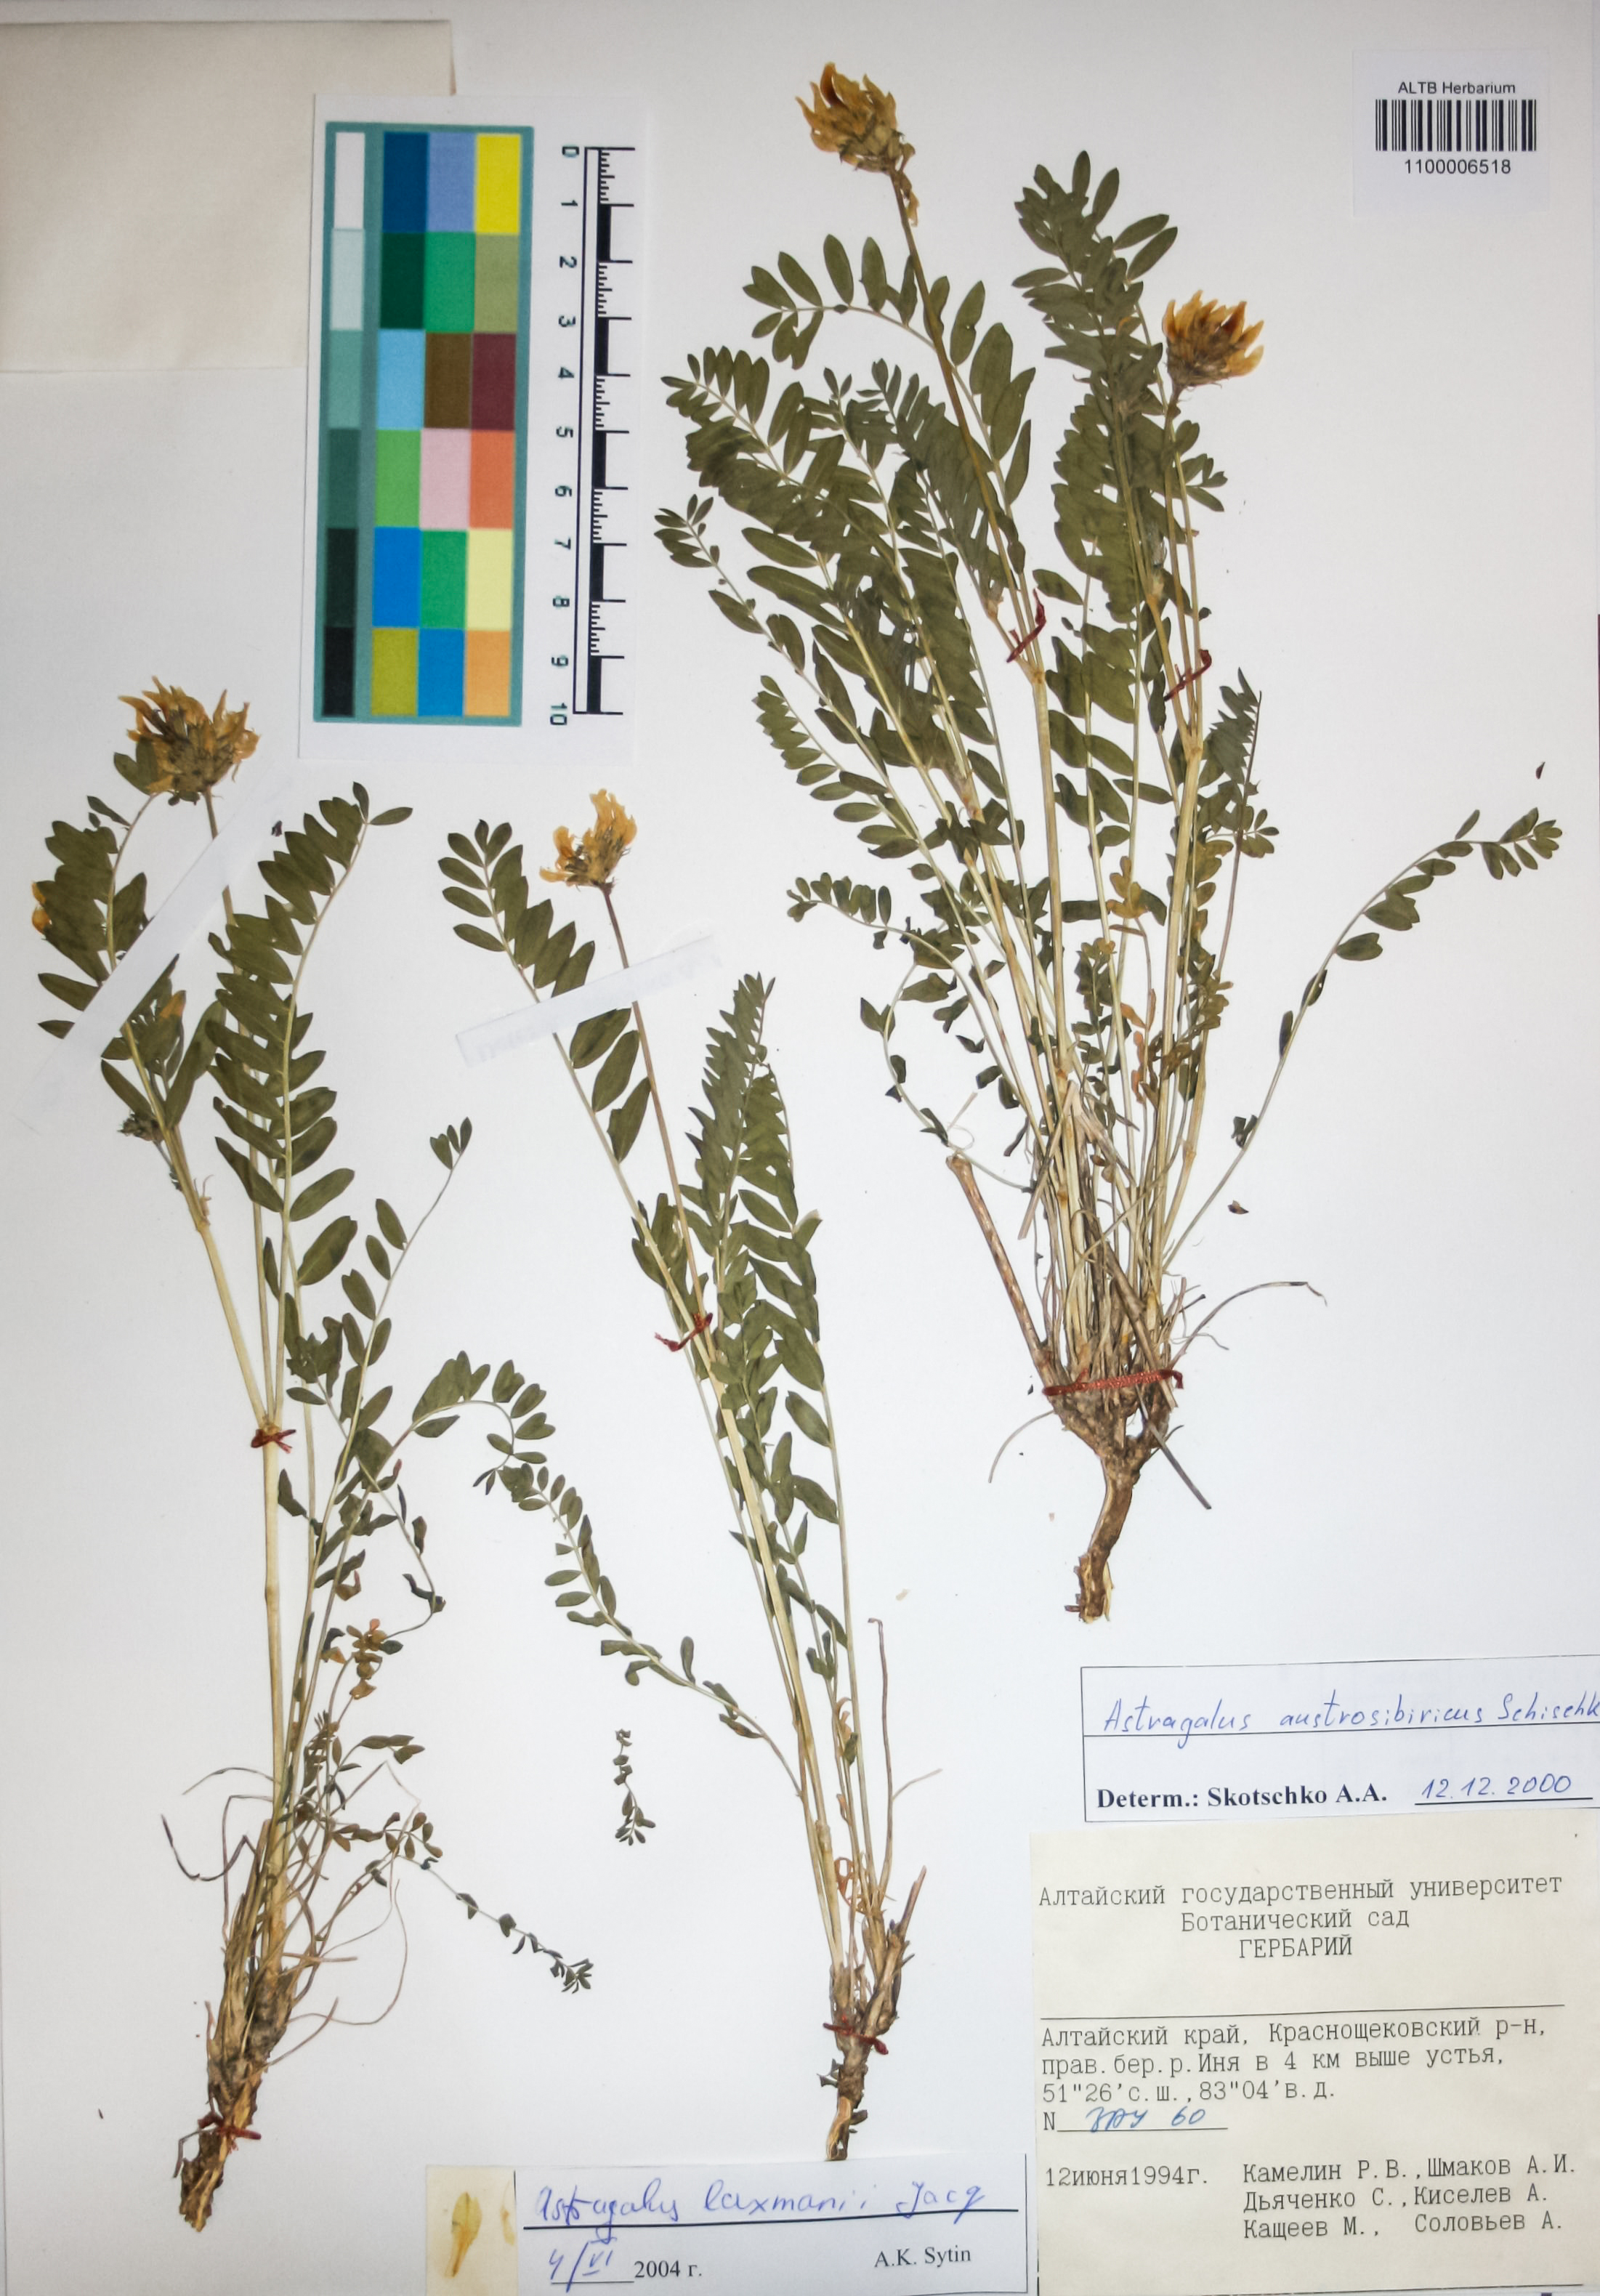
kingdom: Plantae
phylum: Tracheophyta
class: Magnoliopsida
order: Fabales
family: Fabaceae
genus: Astragalus
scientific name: Astragalus laxmannii
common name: Laxmann's milk-vetch
